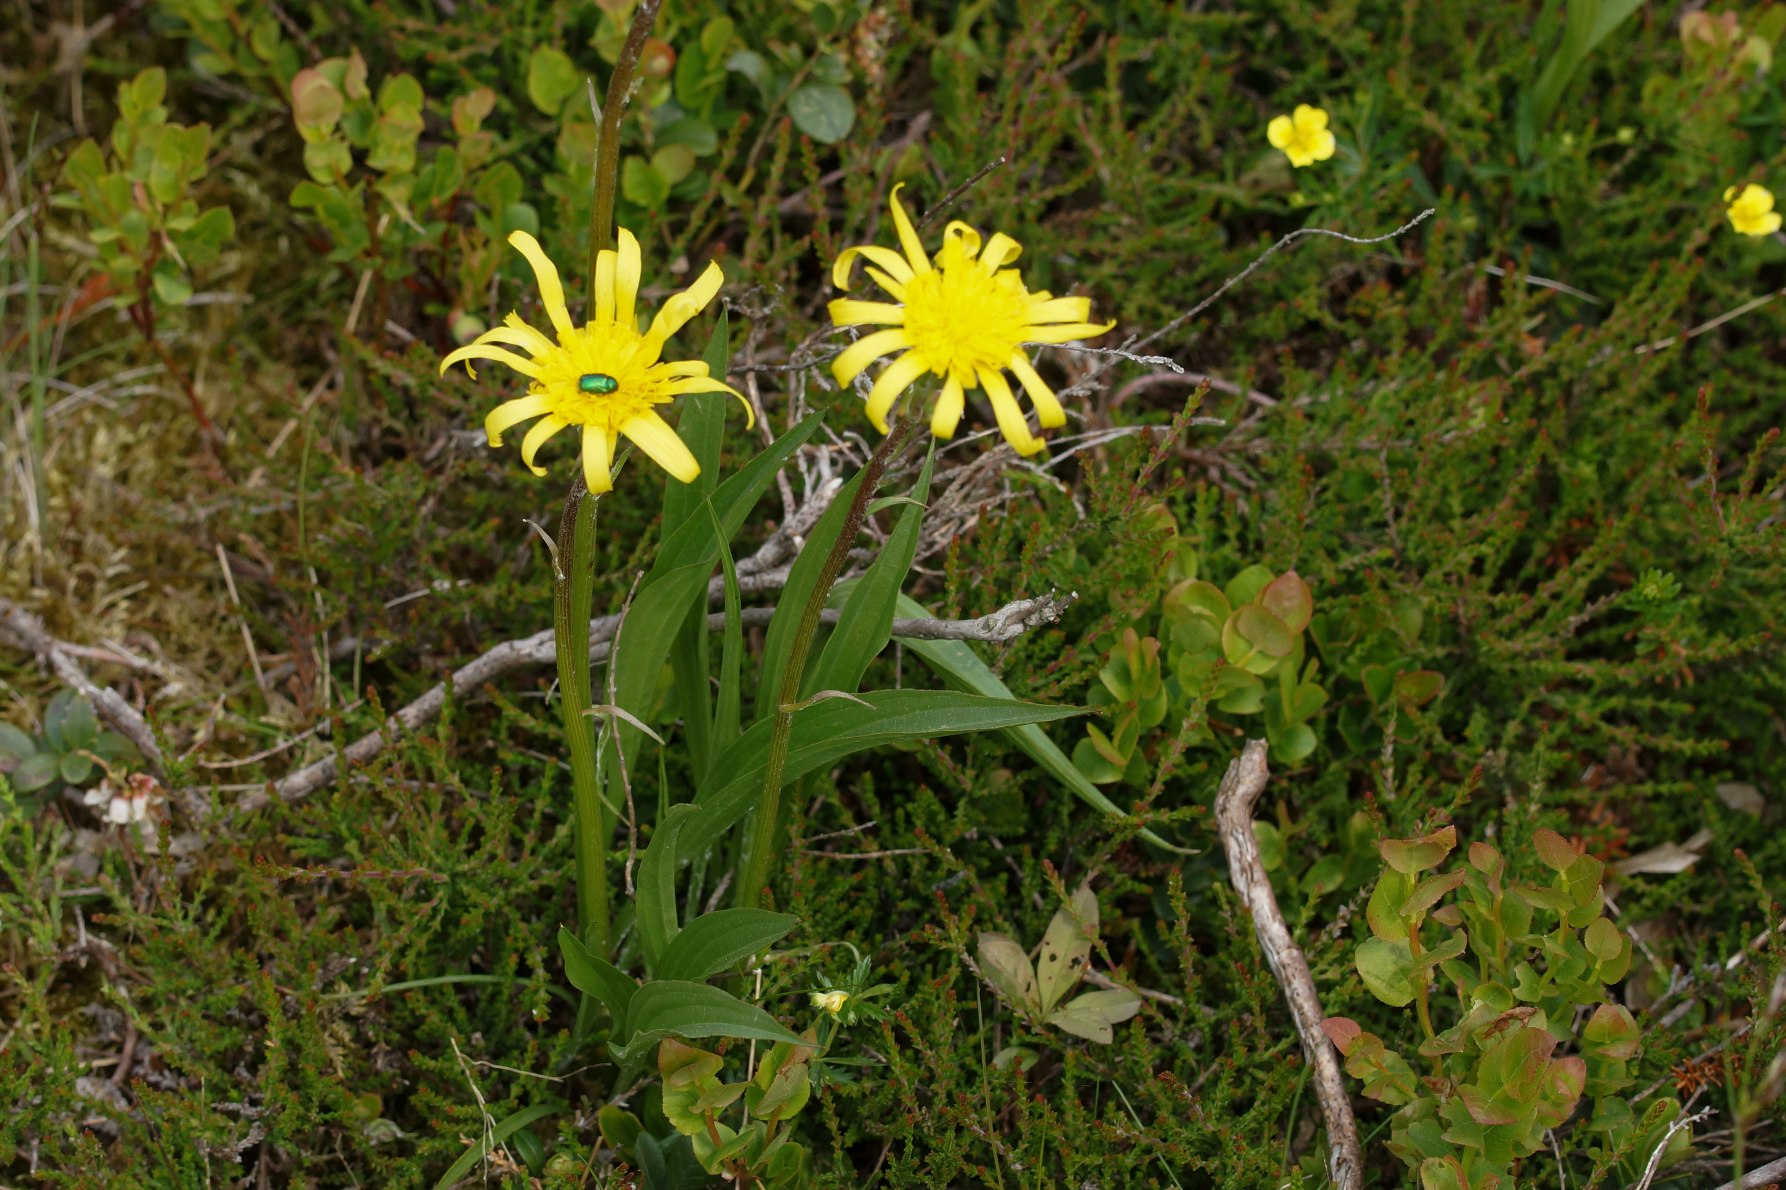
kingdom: Plantae
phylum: Tracheophyta
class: Magnoliopsida
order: Asterales
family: Asteraceae
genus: Scorzonera
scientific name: Scorzonera humilis
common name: Lav skorsoner
